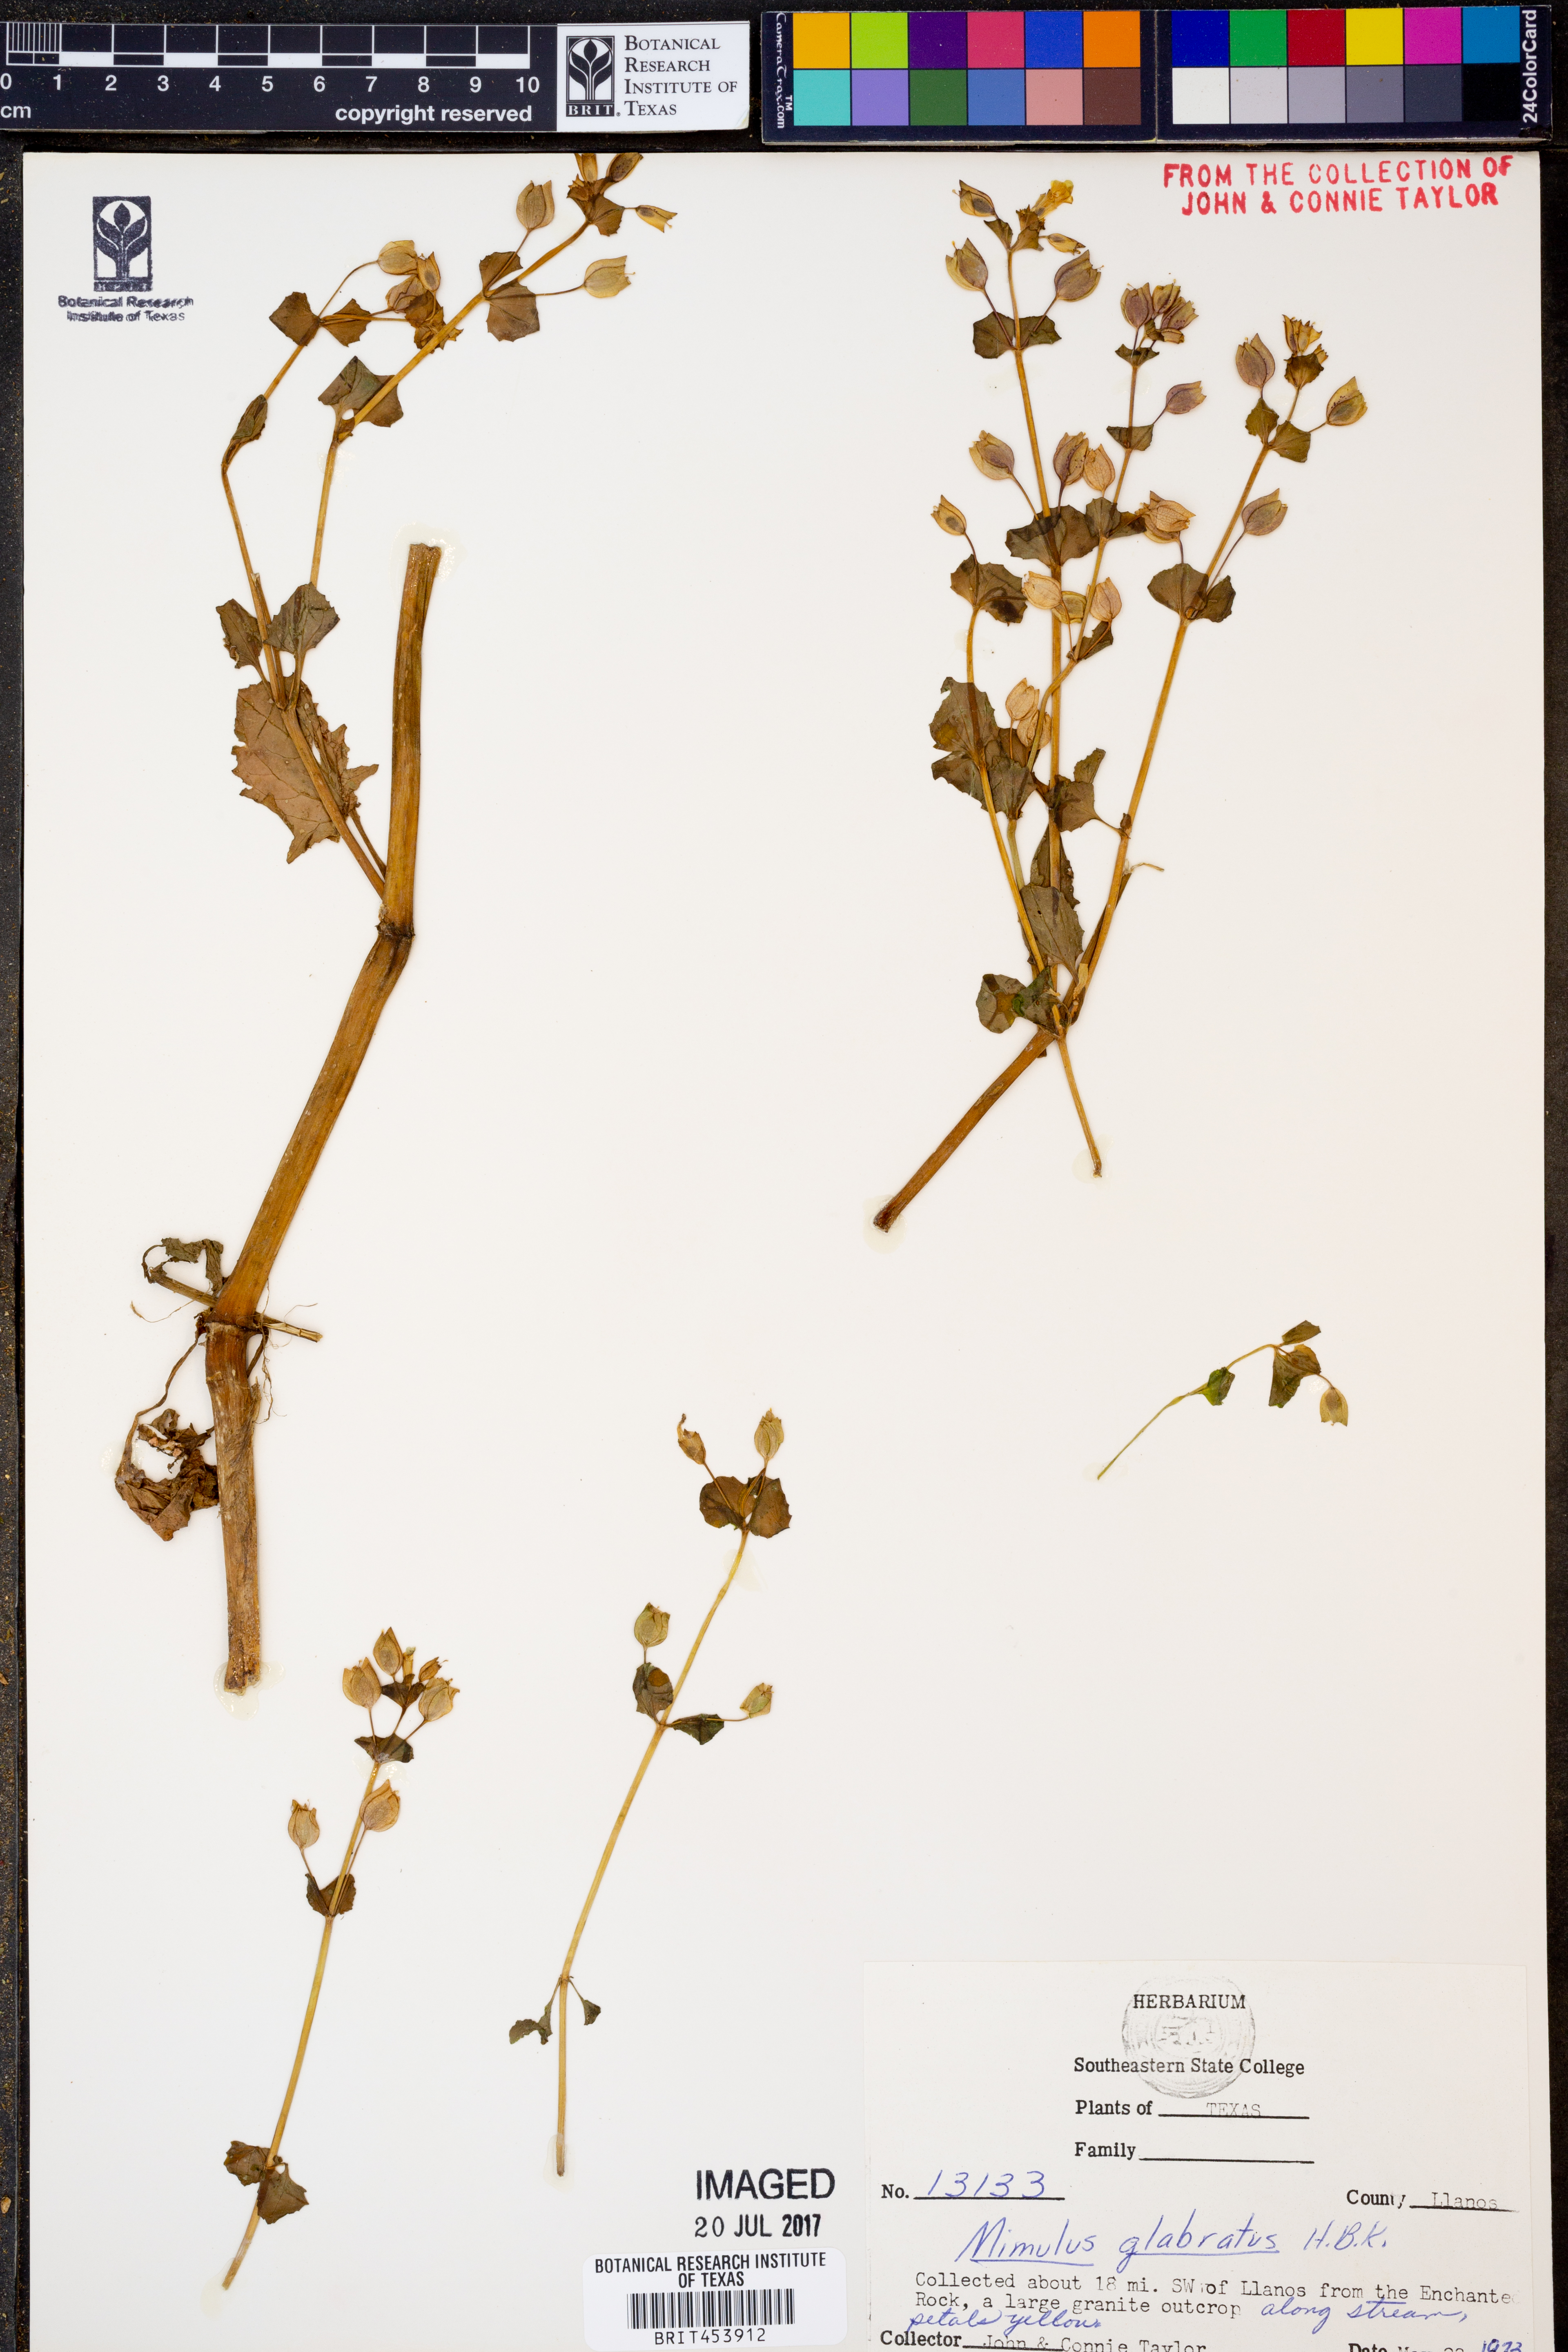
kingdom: Plantae
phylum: Tracheophyta
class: Magnoliopsida
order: Lamiales
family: Phrymaceae
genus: Erythranthe
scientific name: Erythranthe glabrata
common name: Round-leaved monkeyflower
